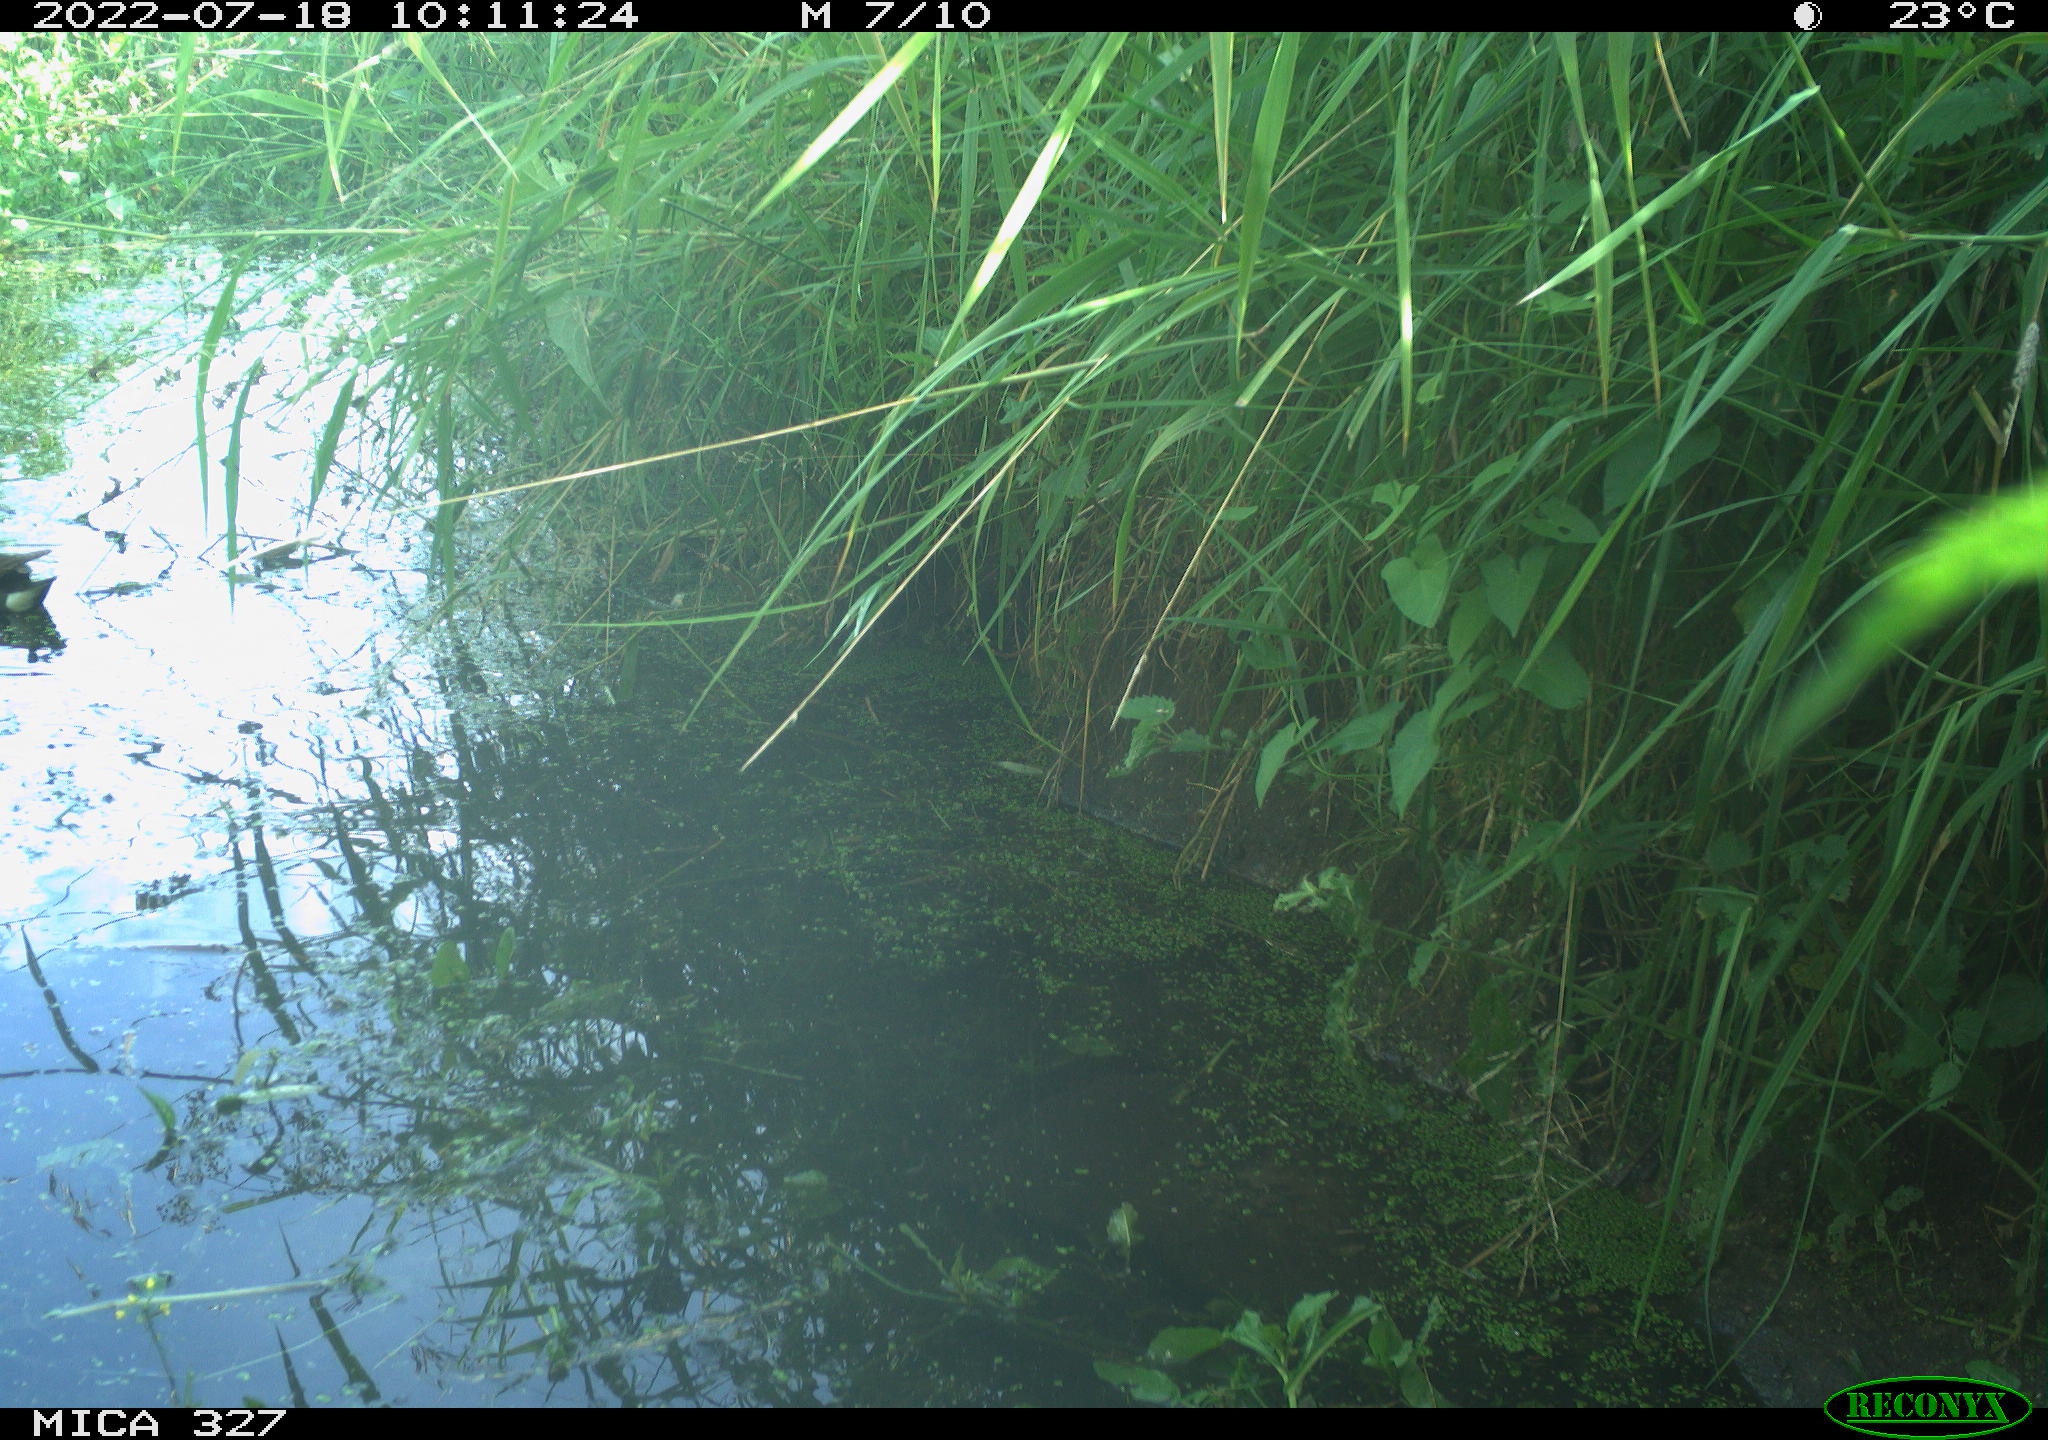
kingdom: Animalia
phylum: Chordata
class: Aves
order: Gruiformes
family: Rallidae
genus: Gallinula
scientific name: Gallinula chloropus
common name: Common moorhen
